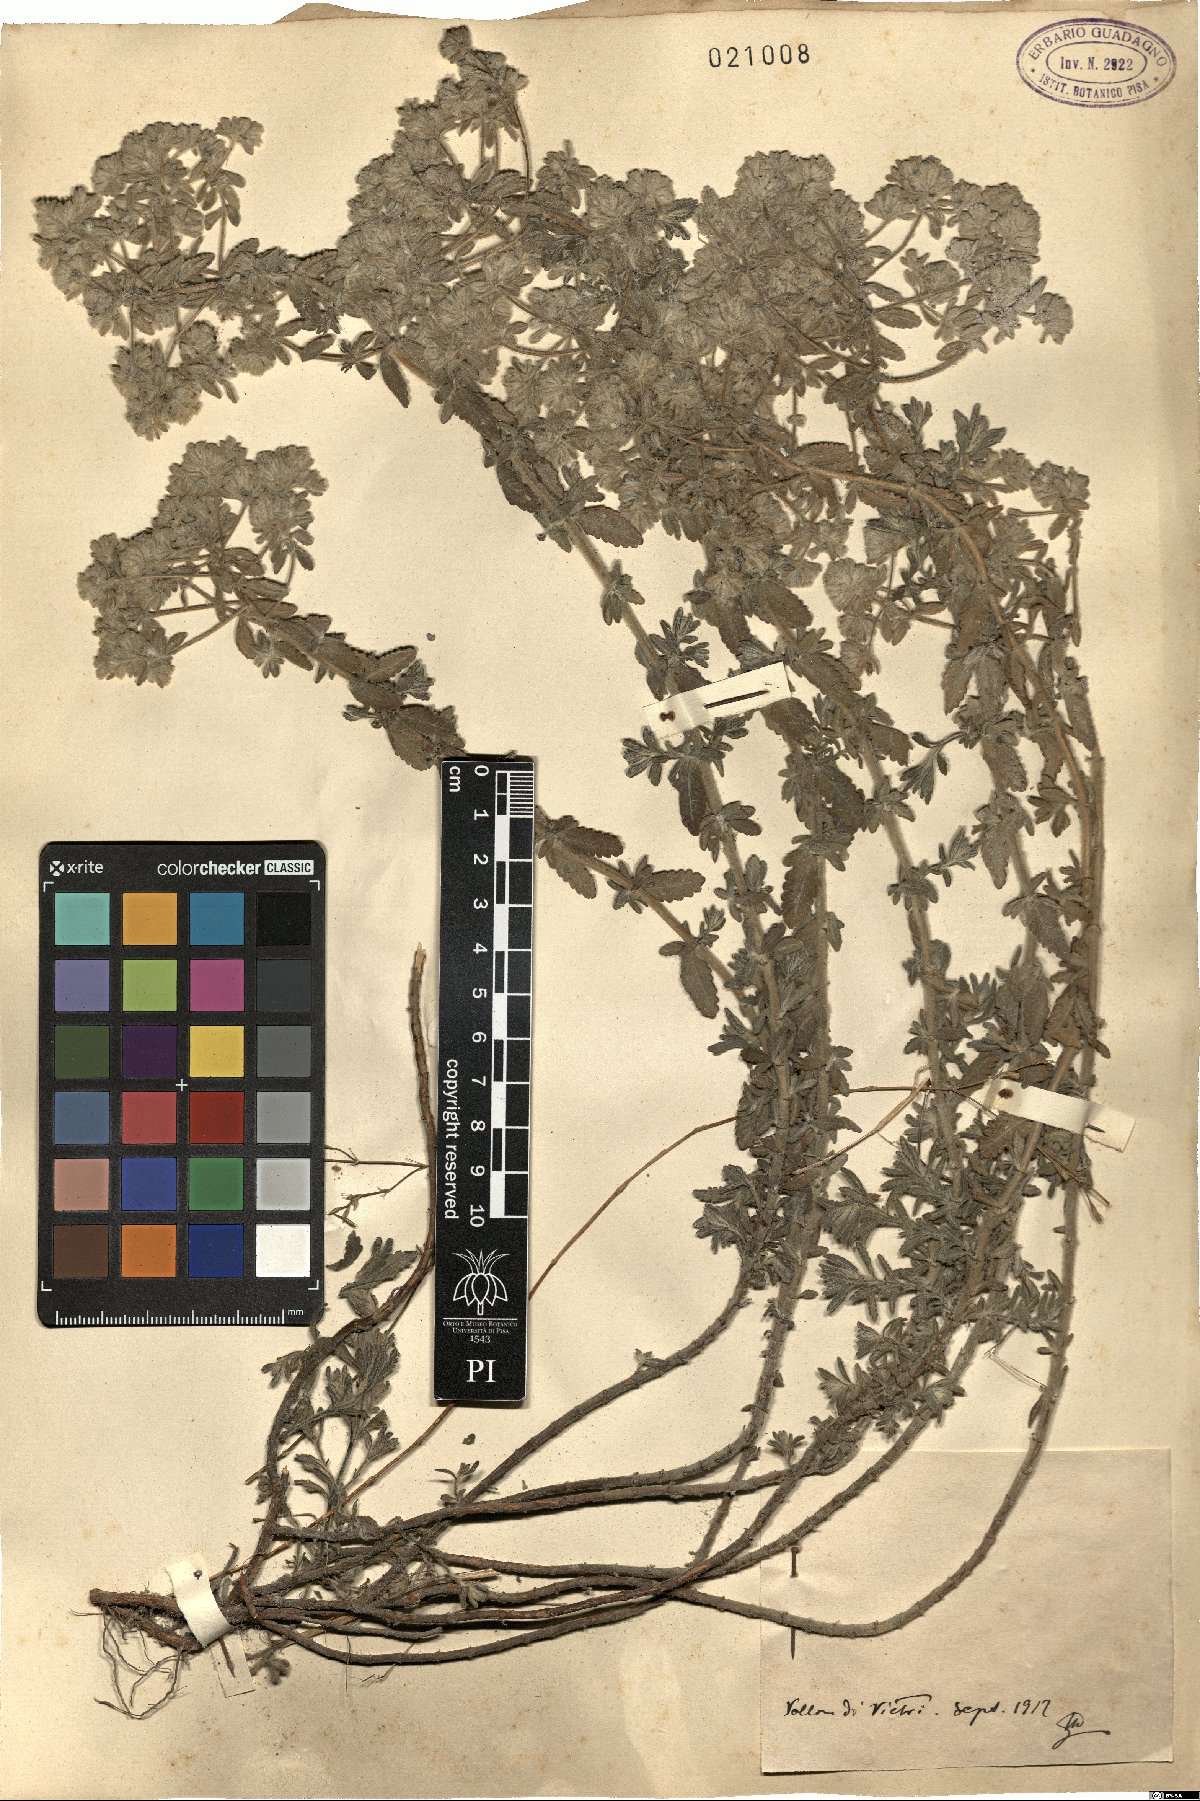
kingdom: Plantae
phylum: Tracheophyta
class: Magnoliopsida
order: Lamiales
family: Lamiaceae
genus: Teucrium
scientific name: Teucrium
